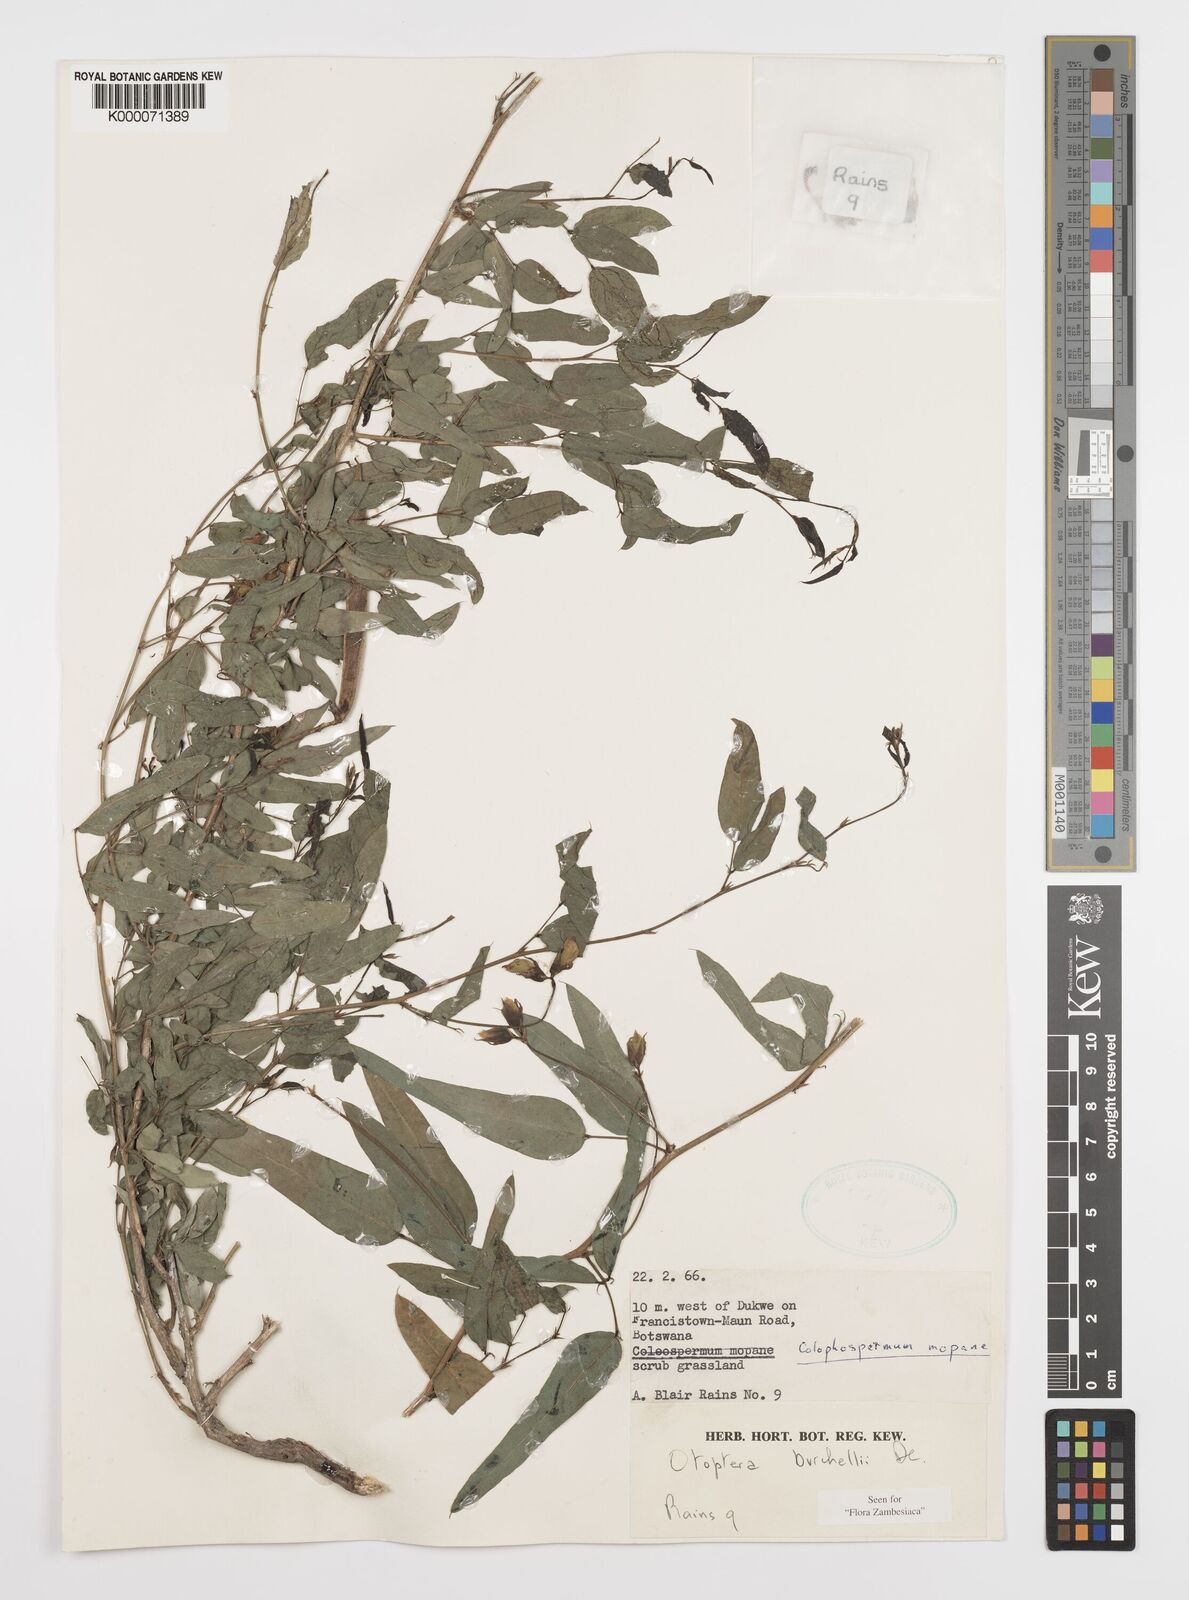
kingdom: Plantae
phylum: Tracheophyta
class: Magnoliopsida
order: Fabales
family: Fabaceae
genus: Otoptera
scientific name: Otoptera burchellii
